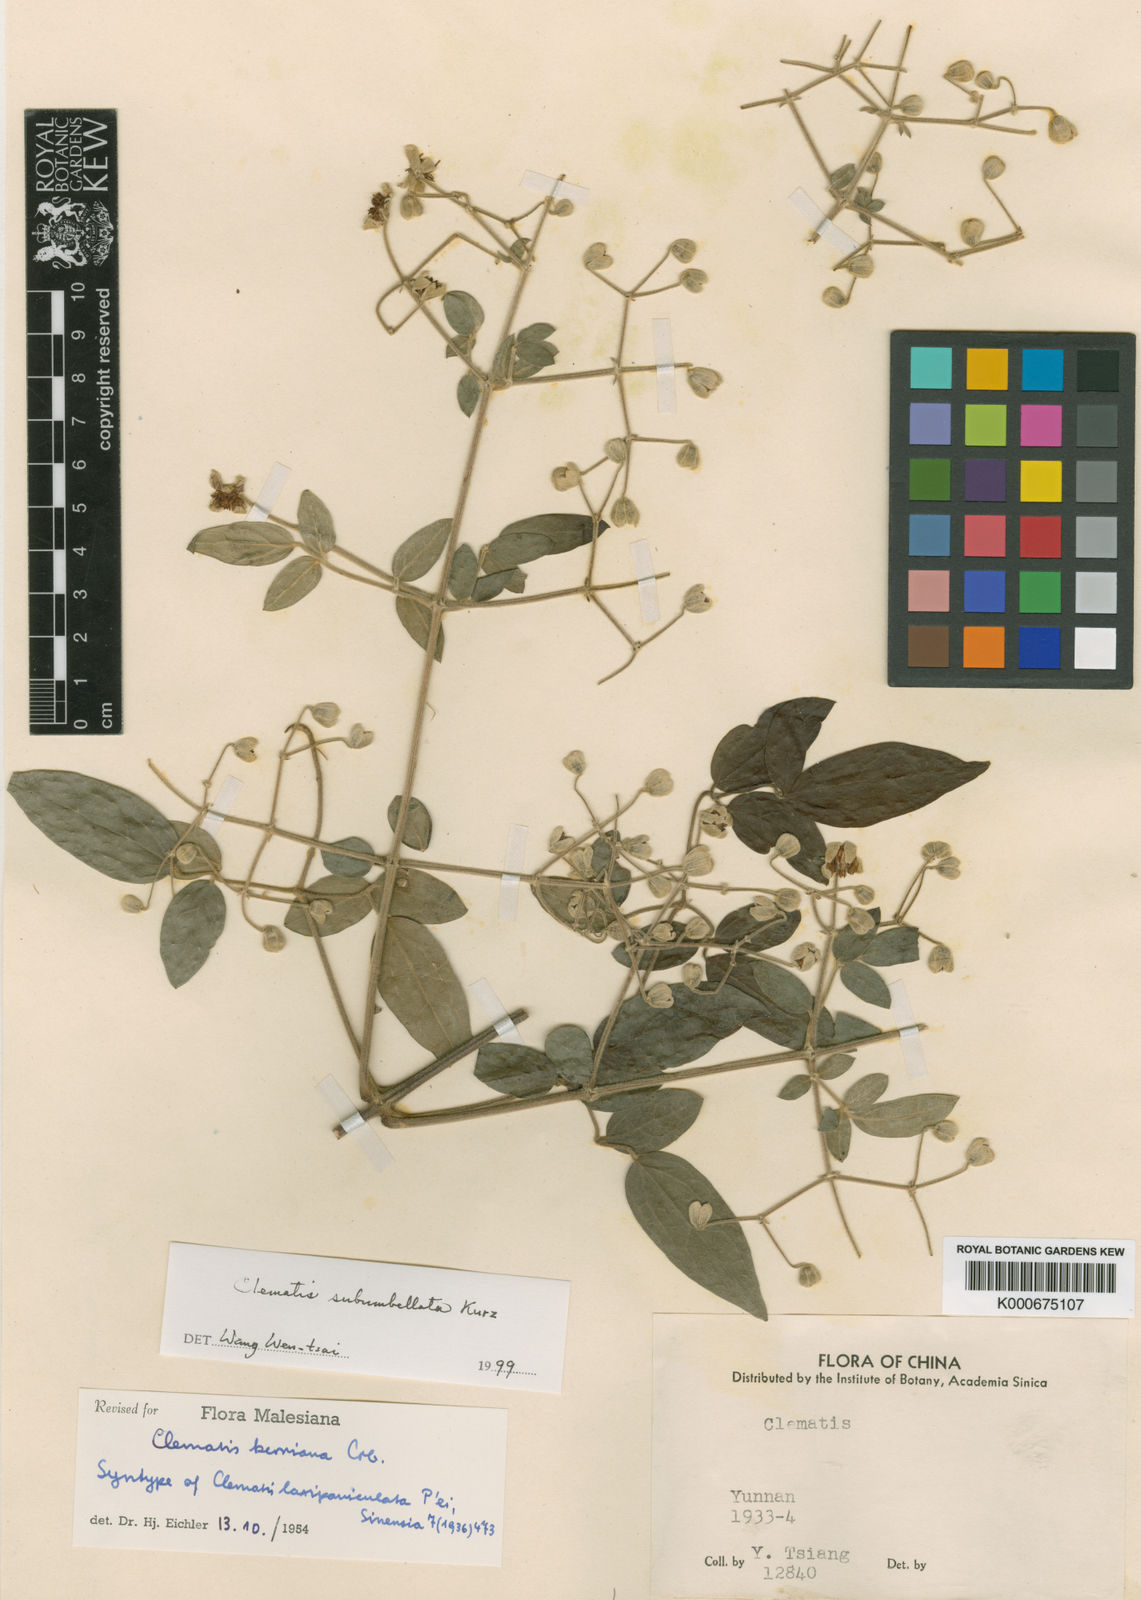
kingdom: Plantae
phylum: Tracheophyta
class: Magnoliopsida
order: Ranunculales
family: Ranunculaceae
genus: Clematis
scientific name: Clematis subumbellata
